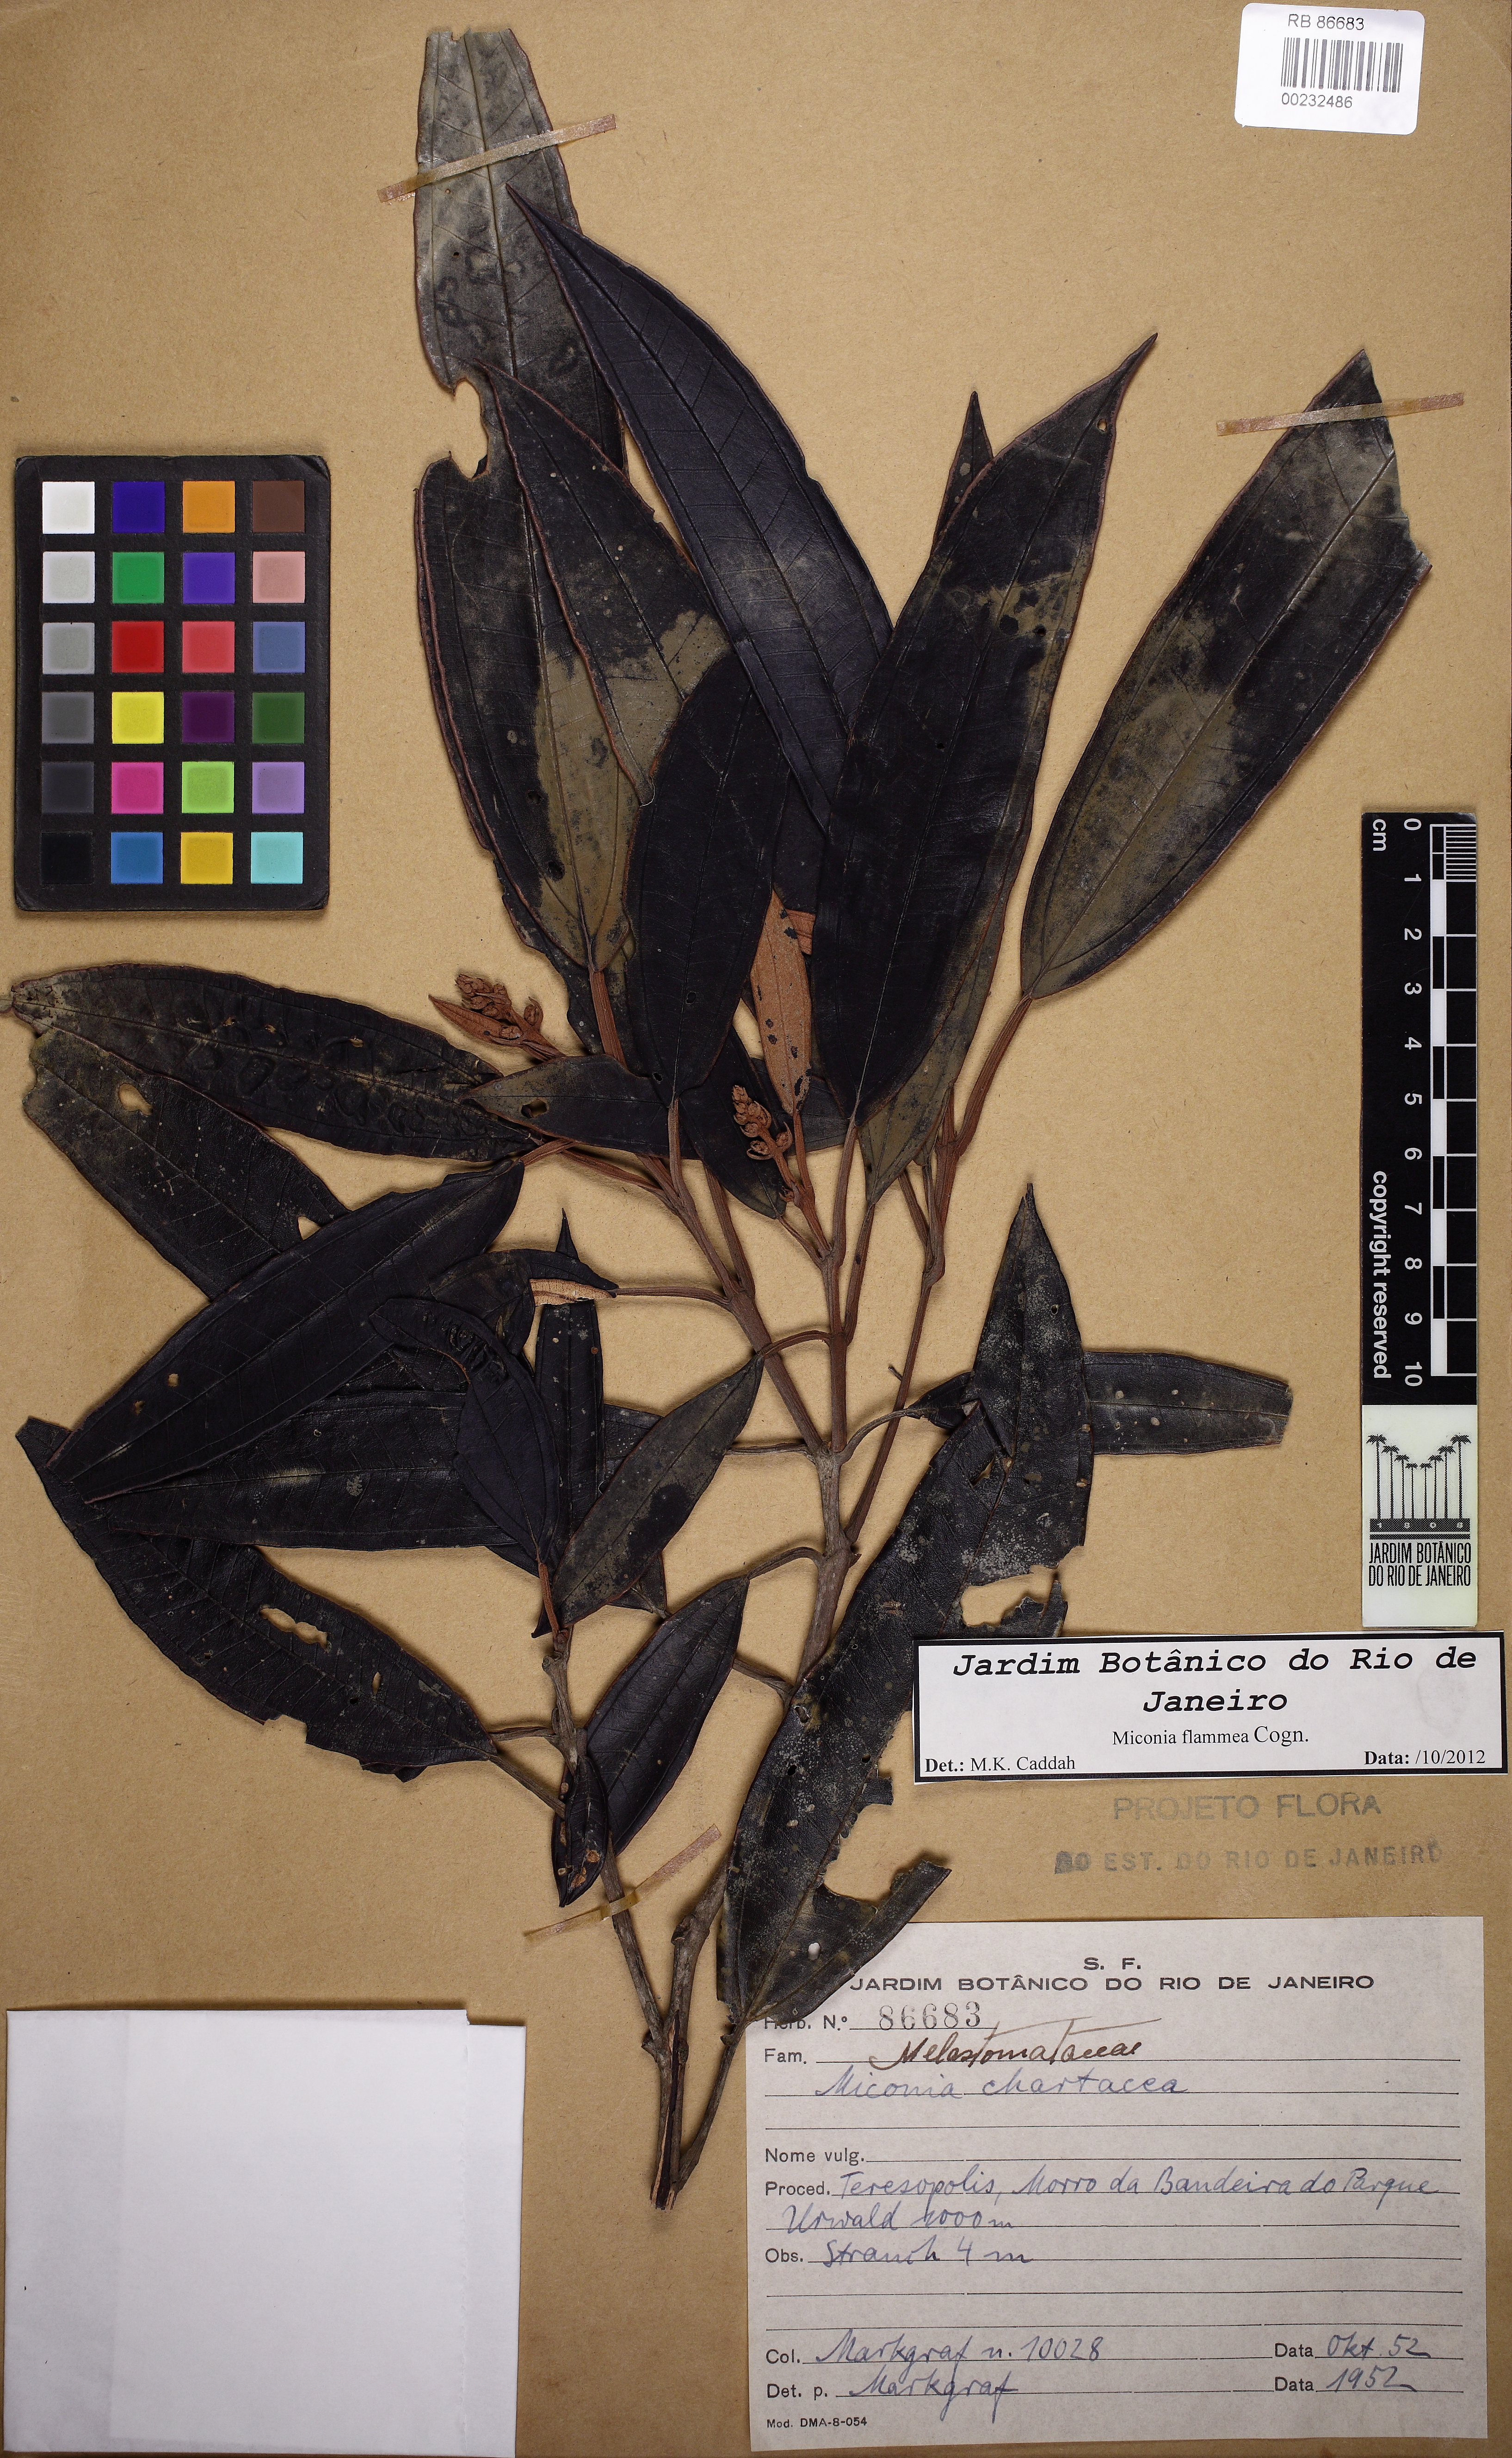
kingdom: Plantae
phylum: Tracheophyta
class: Magnoliopsida
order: Myrtales
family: Melastomataceae
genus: Miconia
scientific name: Miconia flammea
